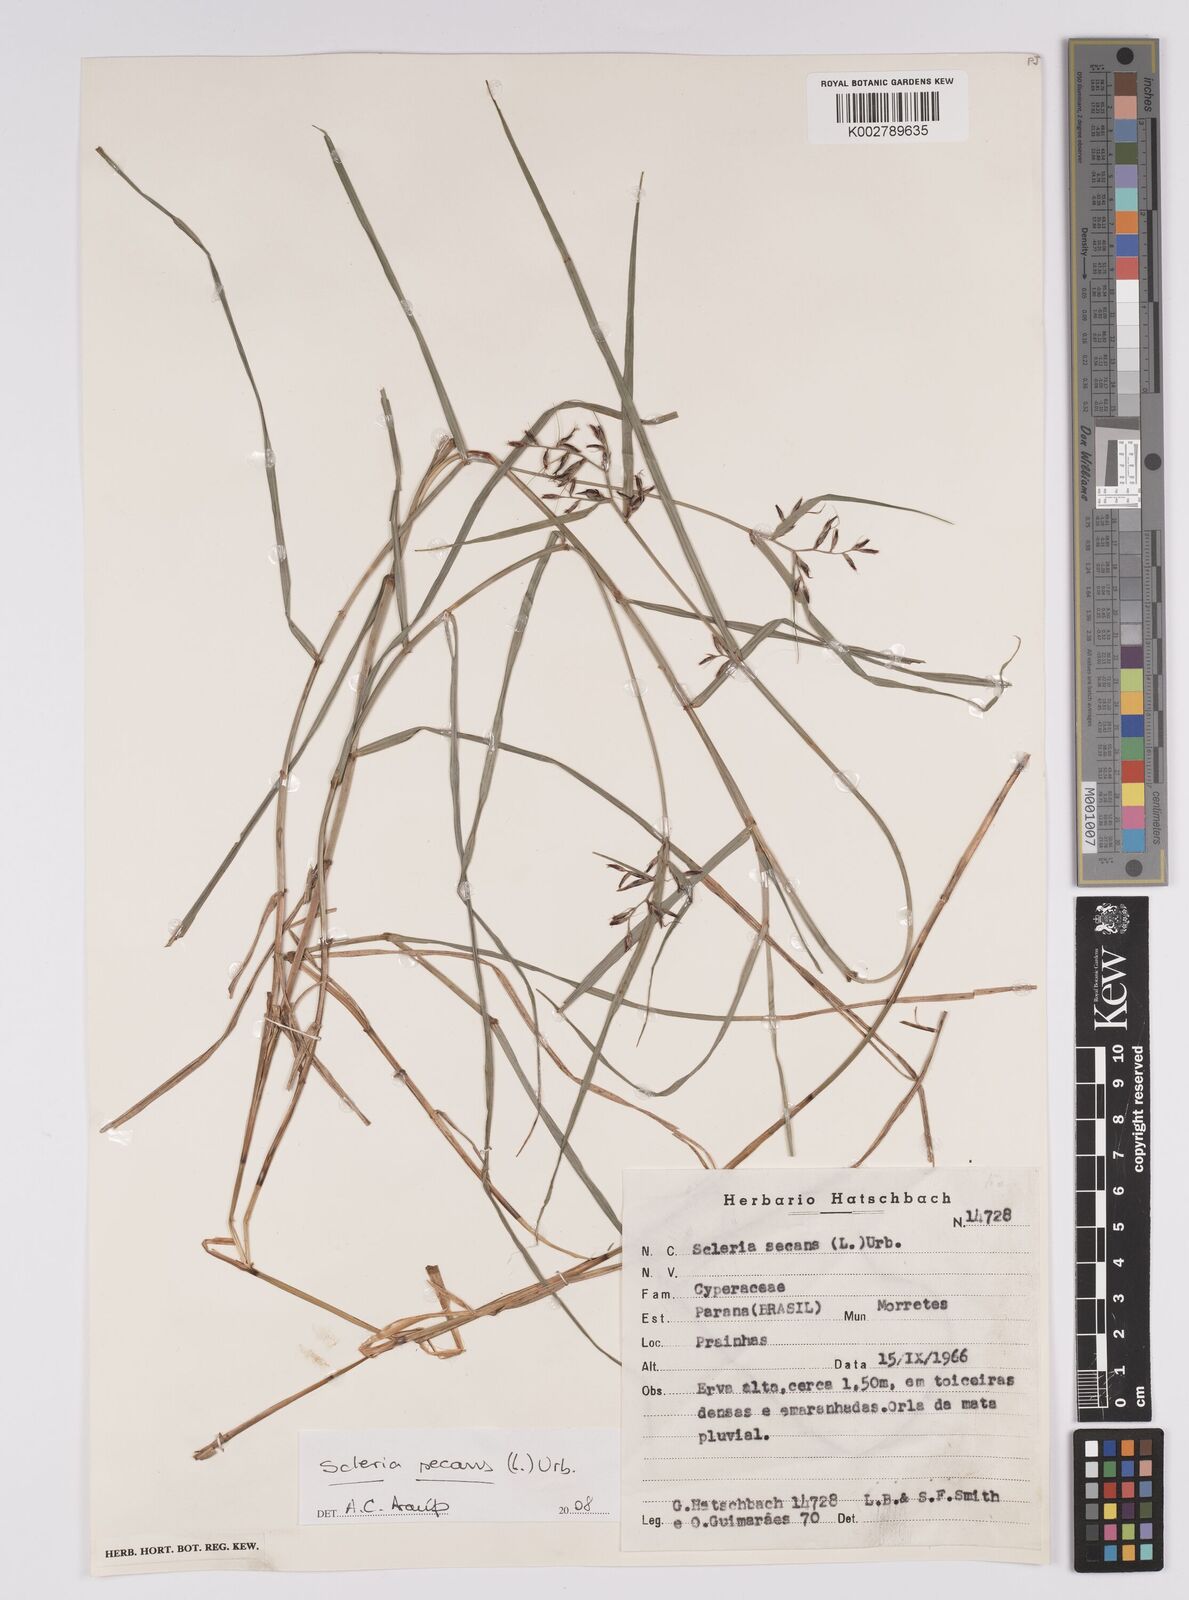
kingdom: Plantae
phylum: Tracheophyta
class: Liliopsida
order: Poales
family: Cyperaceae
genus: Scleria
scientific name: Scleria secans
